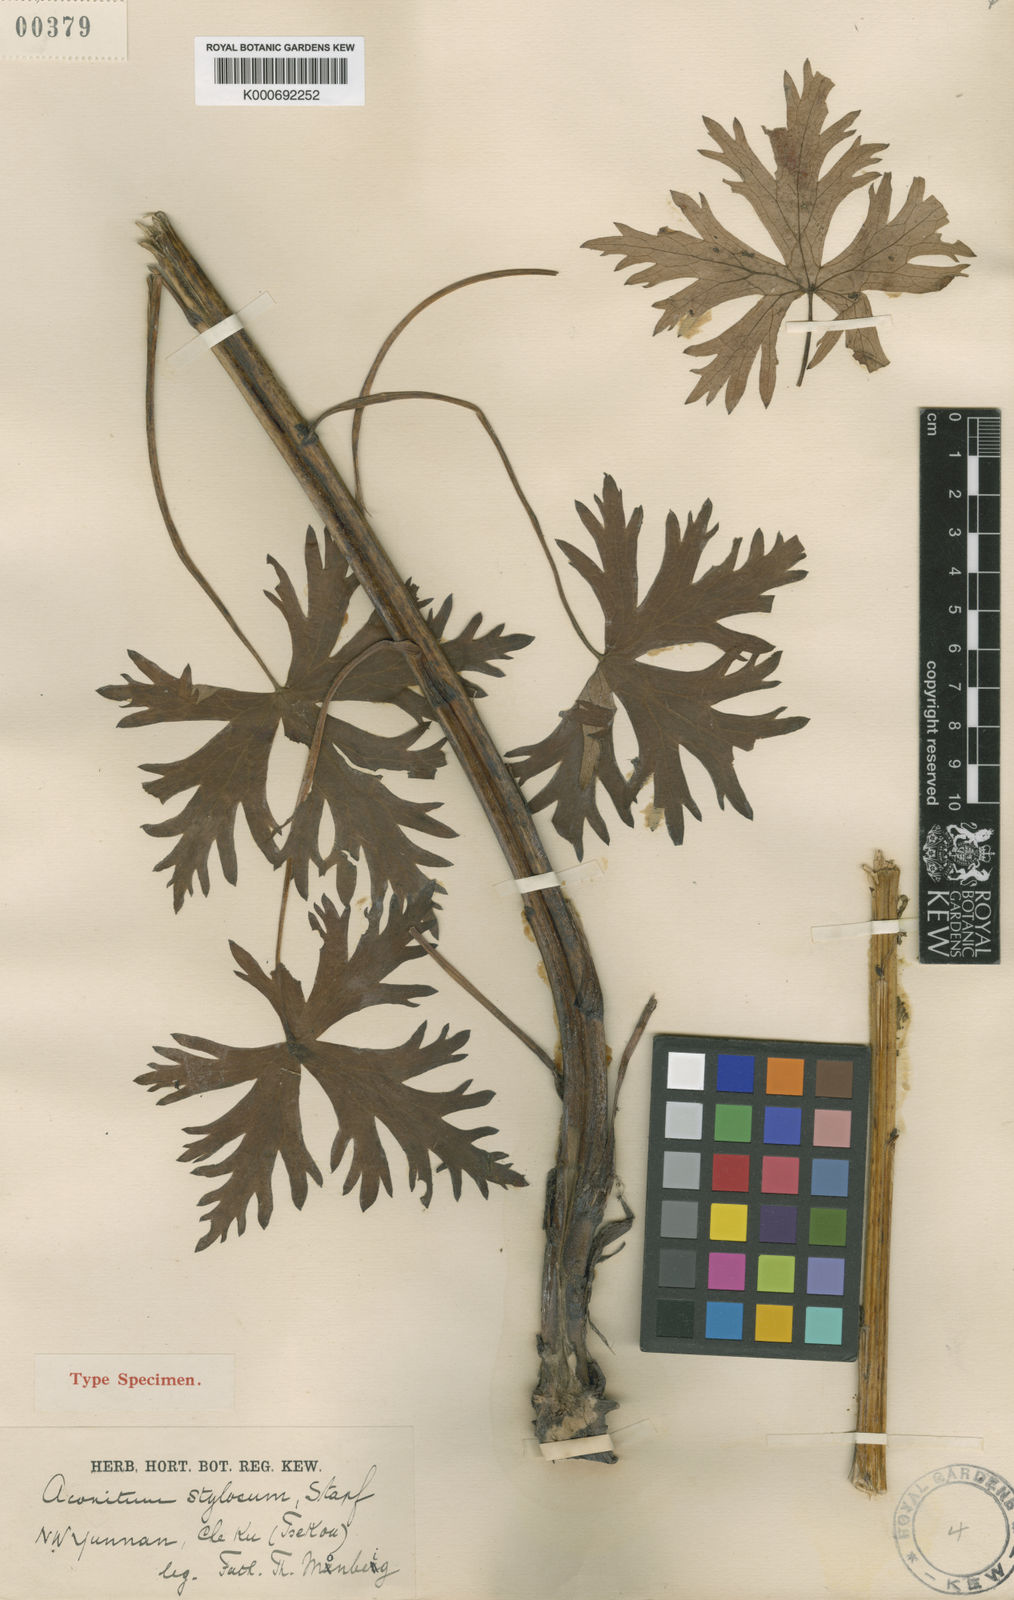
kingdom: Plantae
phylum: Tracheophyta
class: Magnoliopsida
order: Ranunculales
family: Ranunculaceae
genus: Aconitum
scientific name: Aconitum stylosum
